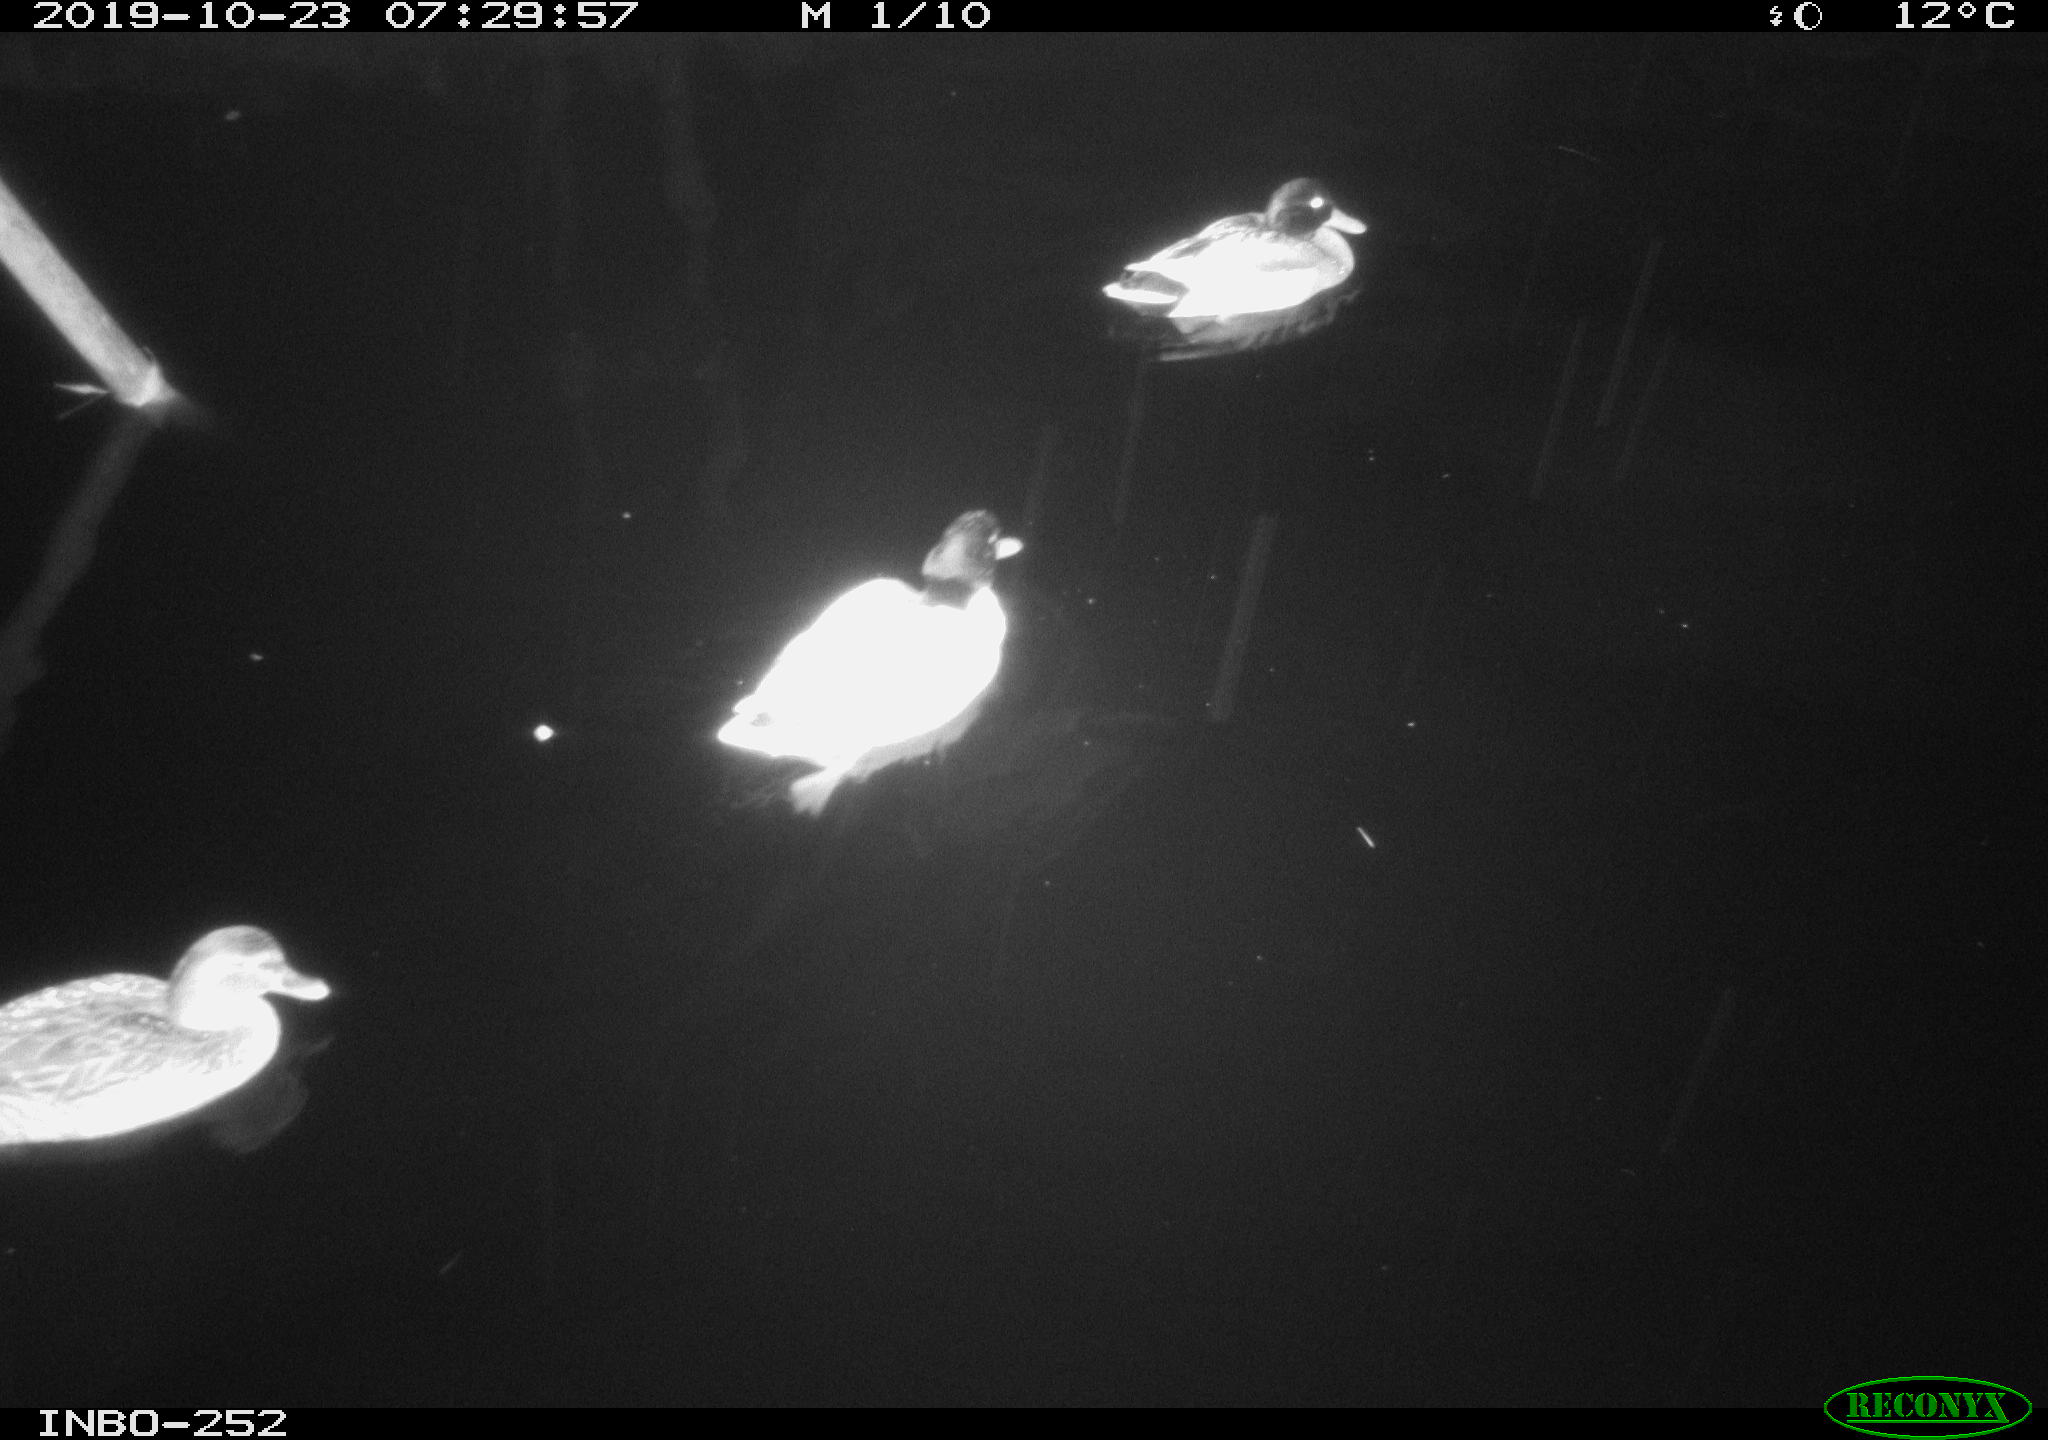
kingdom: Animalia
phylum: Chordata
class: Aves
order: Anseriformes
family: Anatidae
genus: Anas
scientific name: Anas platyrhynchos
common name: Mallard
